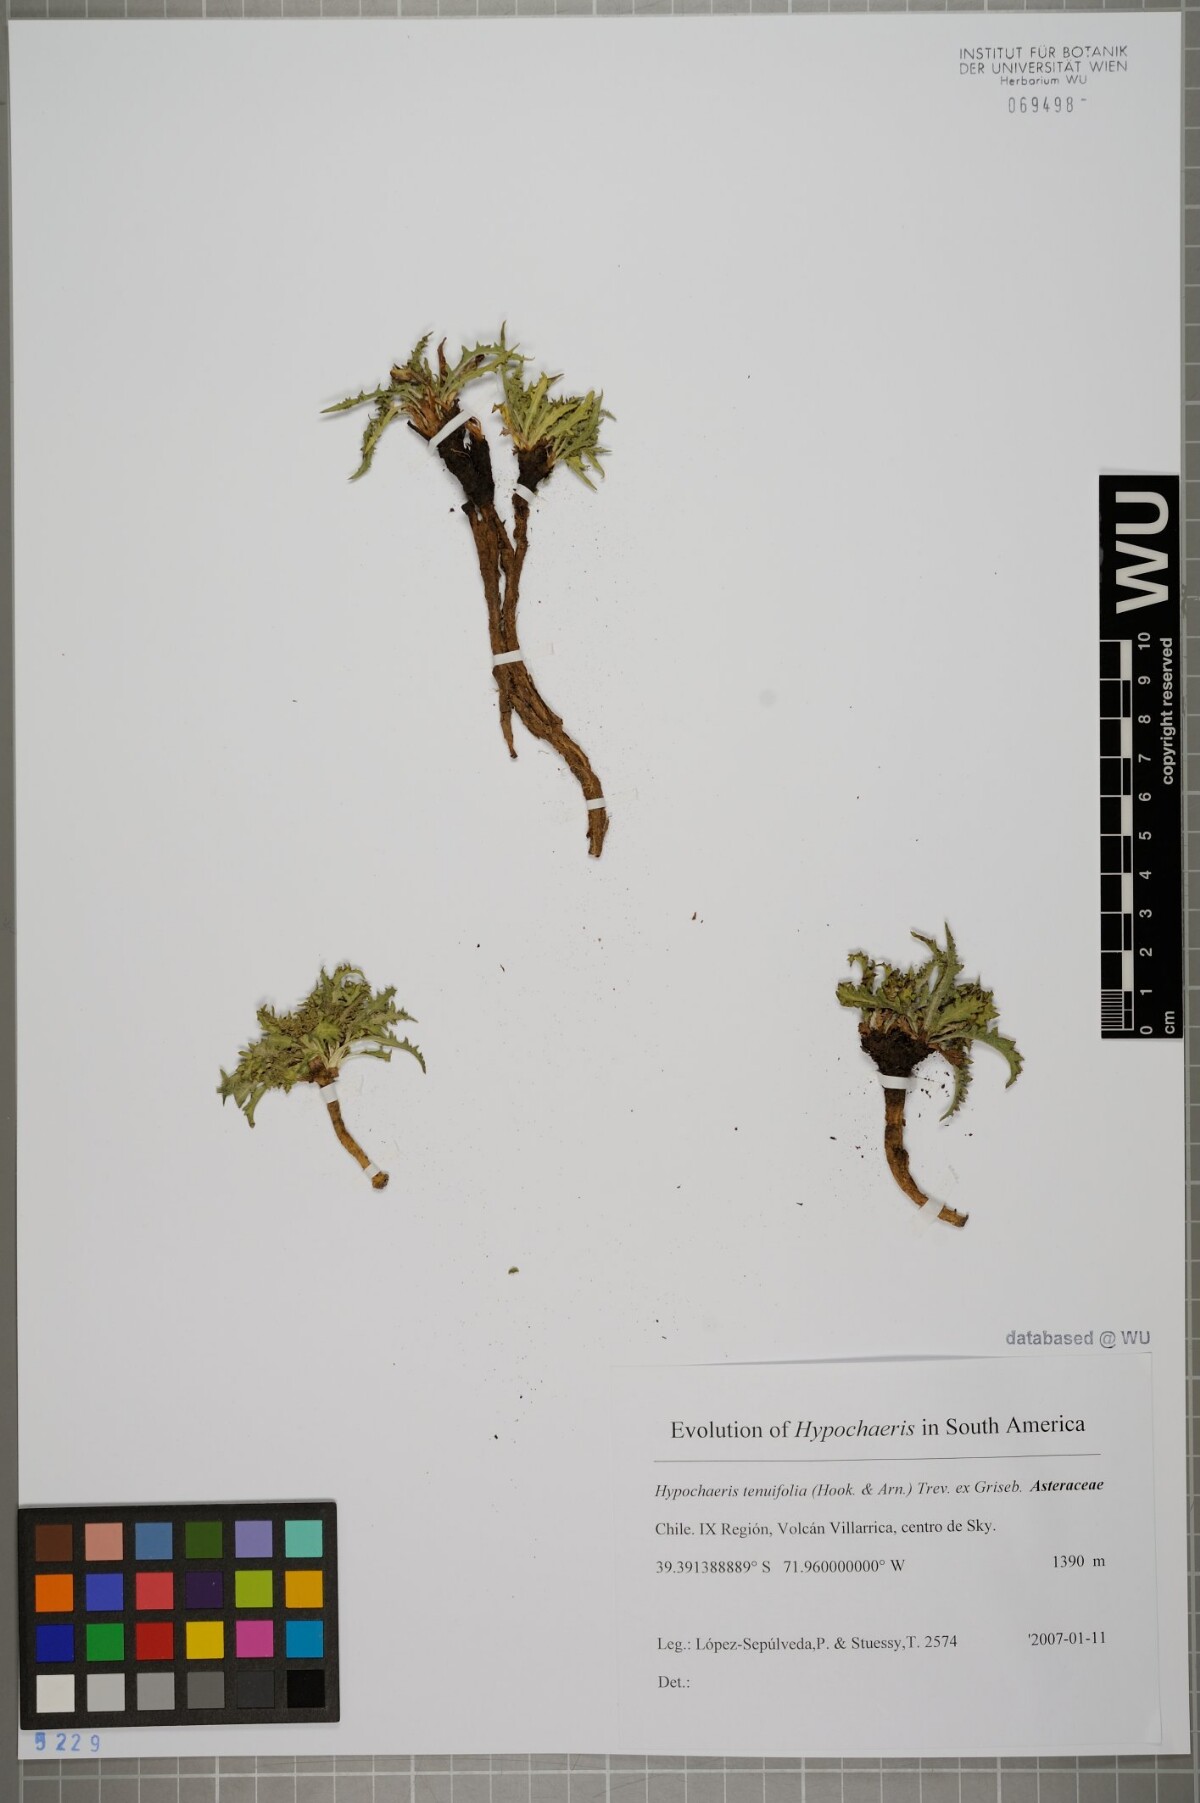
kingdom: Plantae
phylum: Tracheophyta
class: Magnoliopsida
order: Asterales
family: Asteraceae
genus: Hypochaeris
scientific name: Hypochaeris tenuifolia
